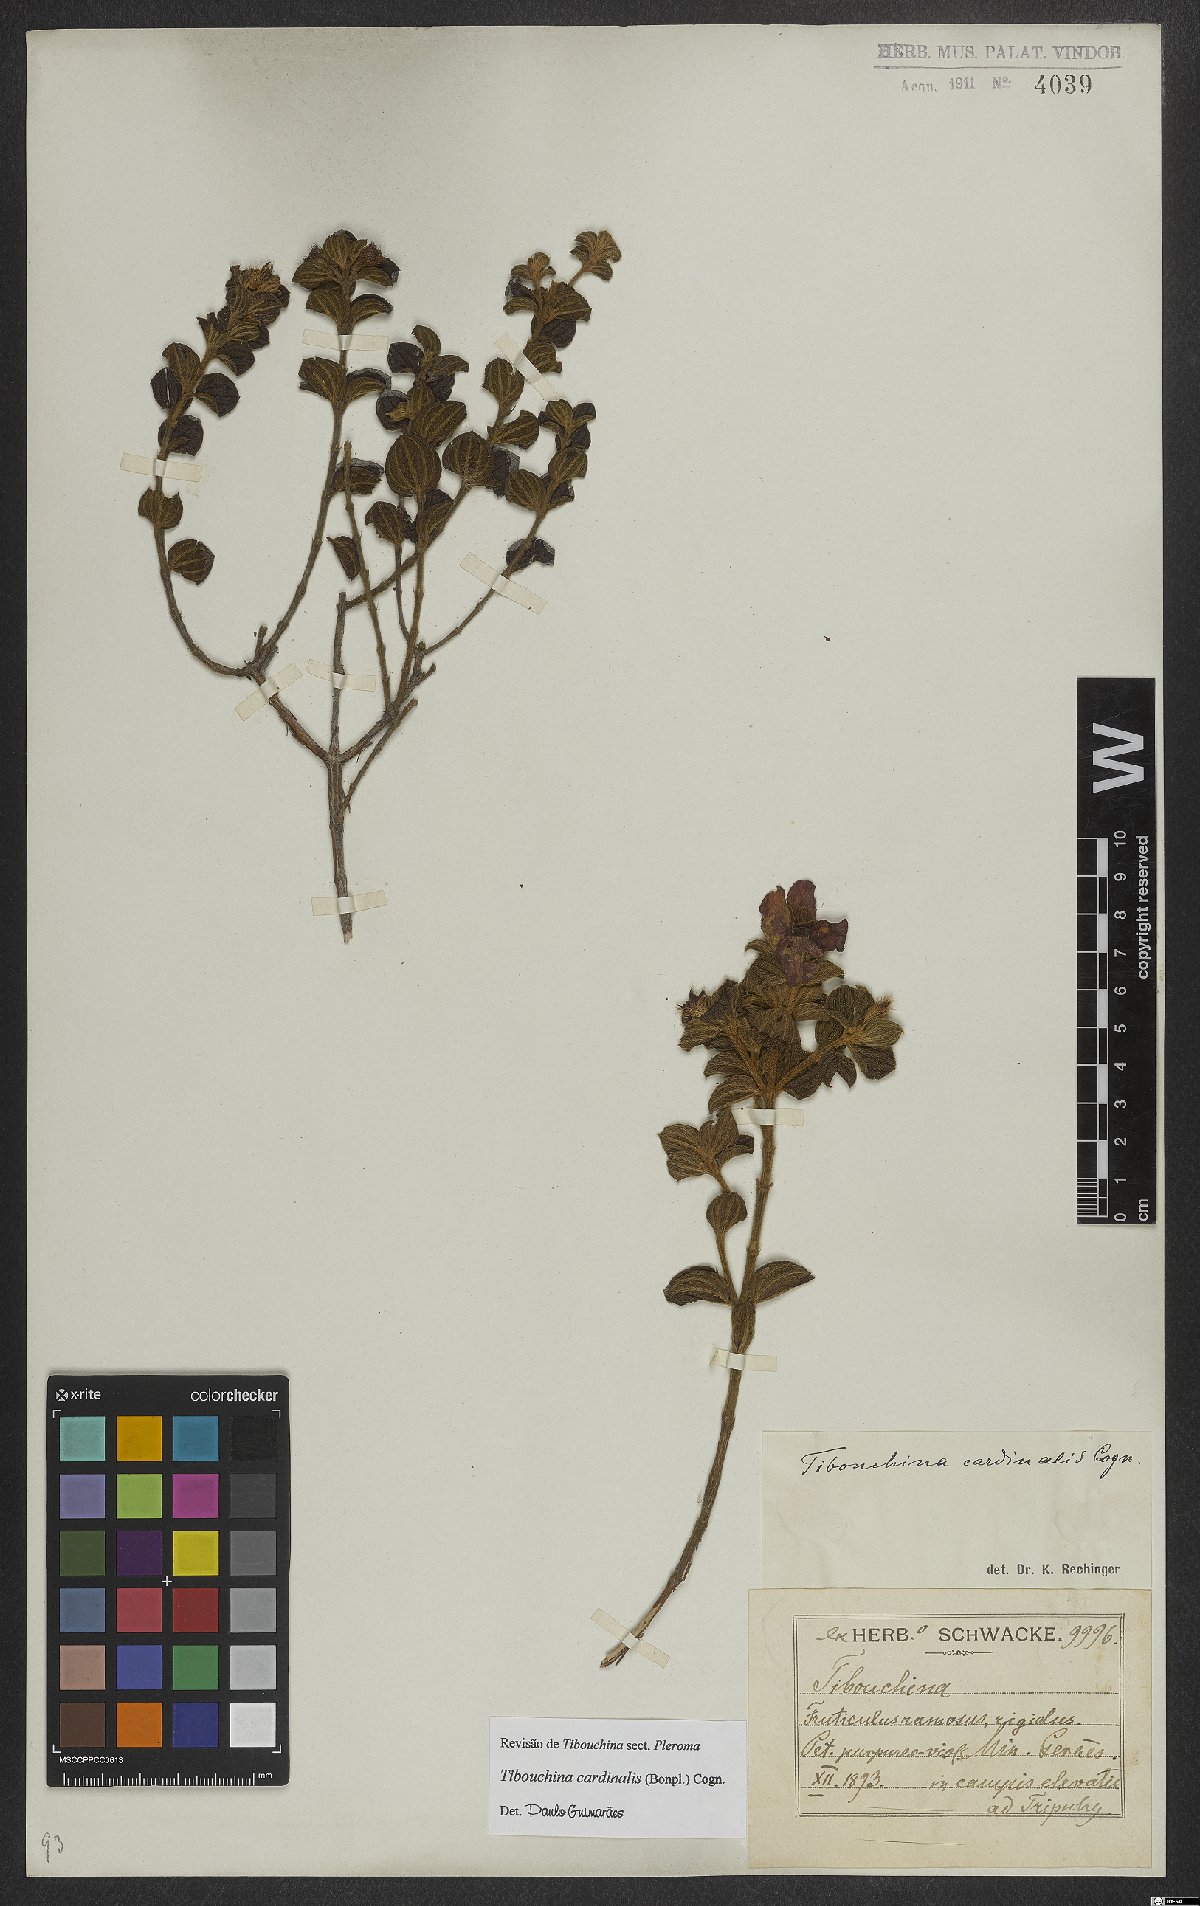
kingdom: Plantae
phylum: Tracheophyta
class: Magnoliopsida
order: Myrtales
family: Melastomataceae
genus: Chaetogastra
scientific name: Chaetogastra cardinalis
